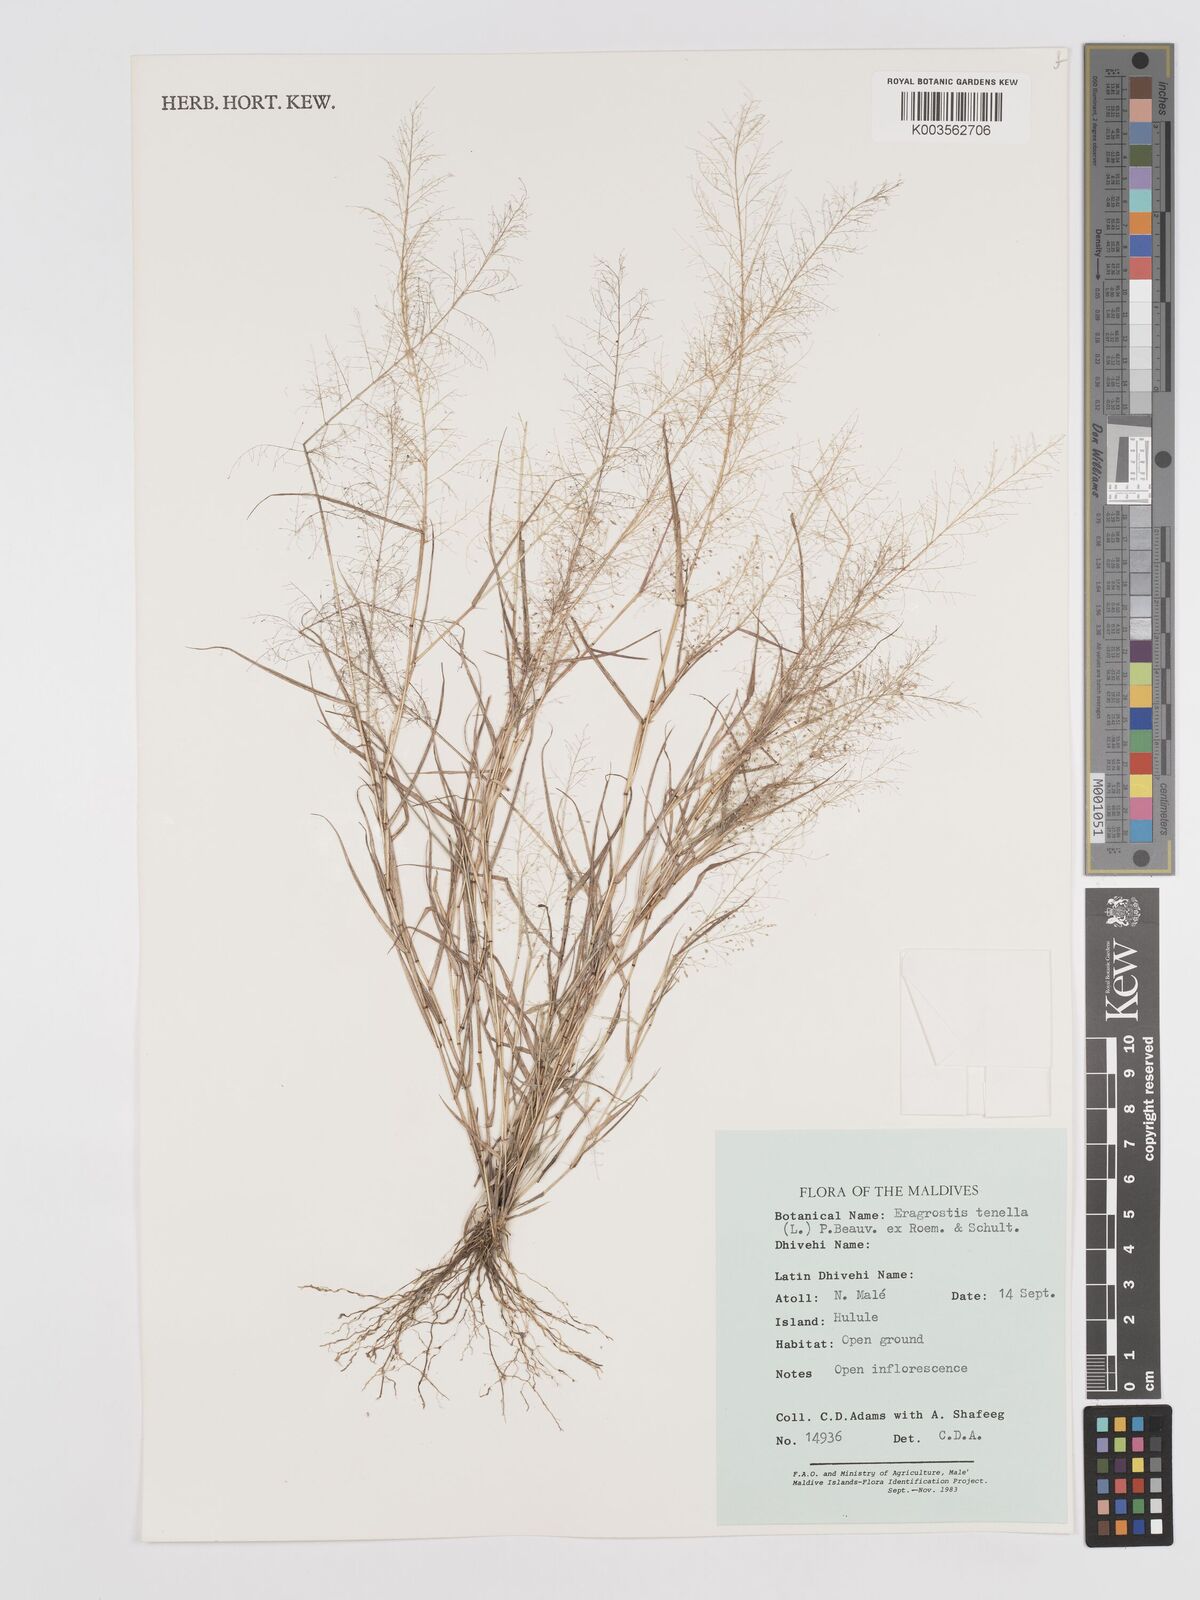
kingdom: Plantae
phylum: Tracheophyta
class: Liliopsida
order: Poales
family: Poaceae
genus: Eragrostis
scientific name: Eragrostis tenella
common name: Japanese lovegrass
